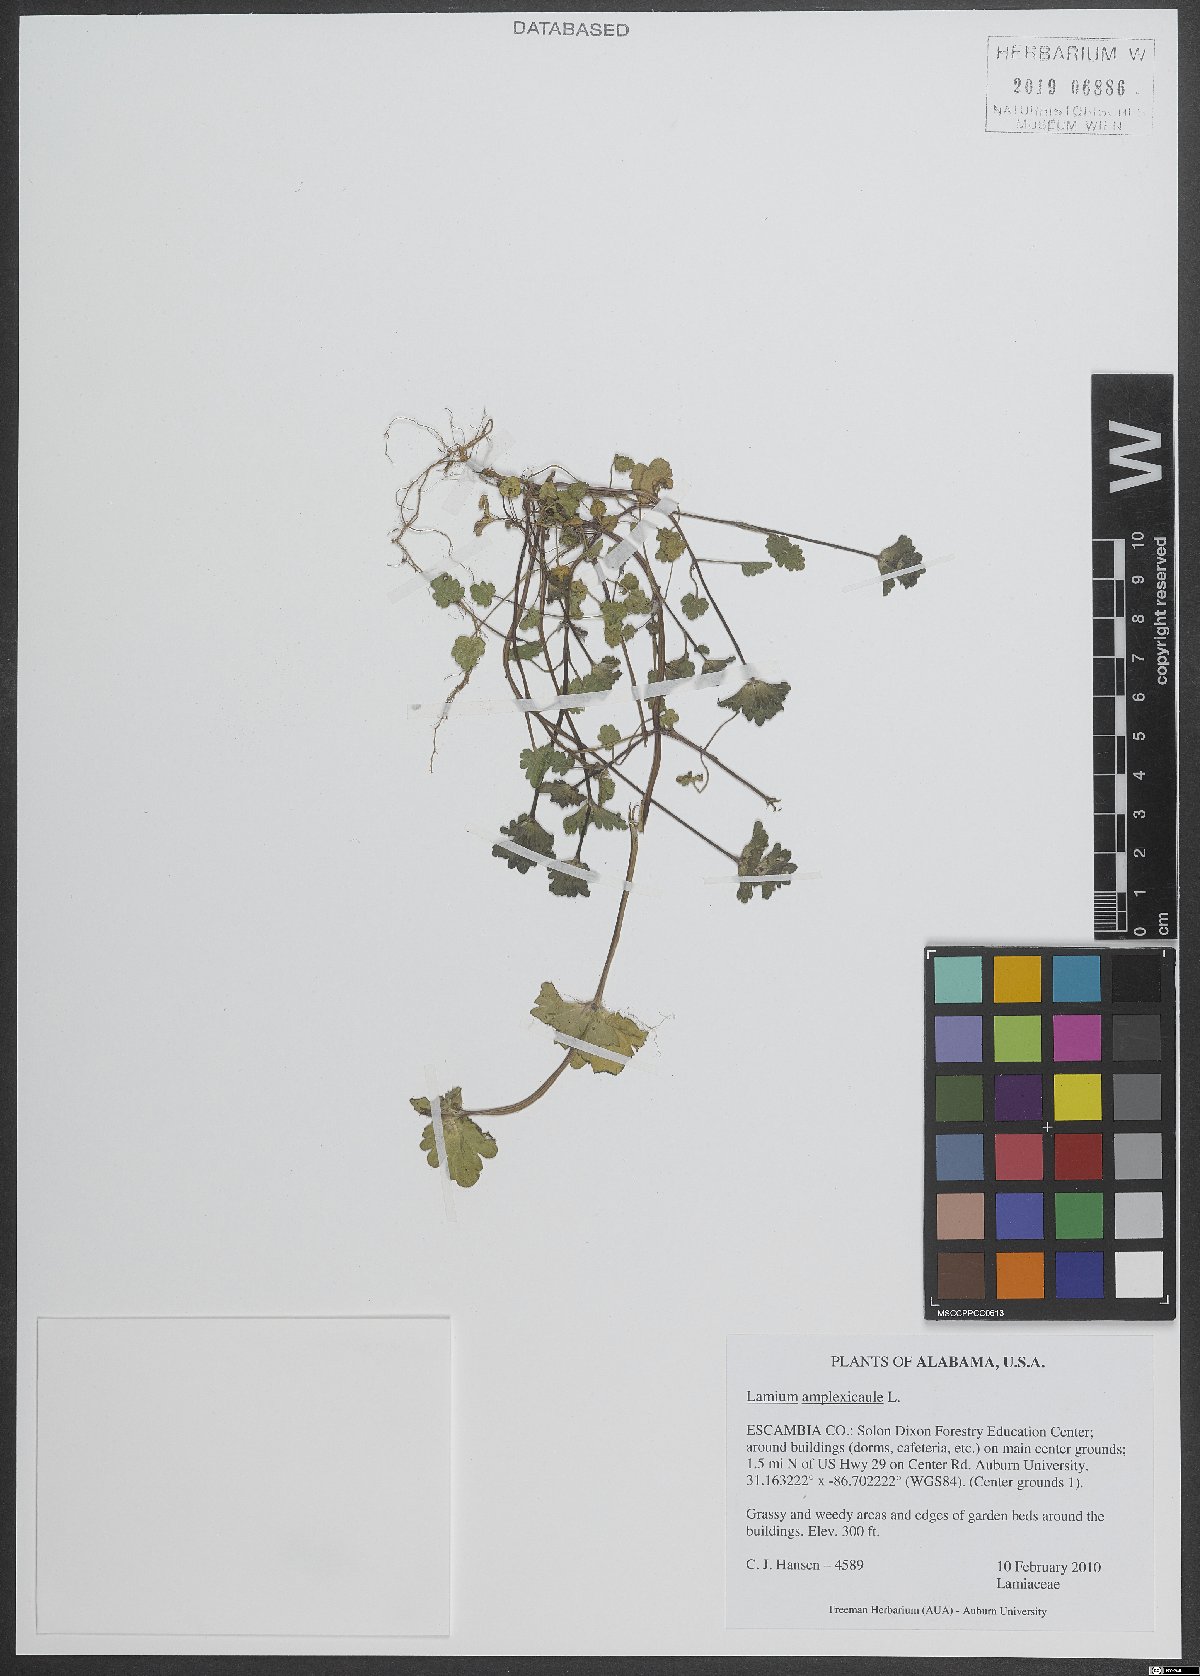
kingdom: Plantae
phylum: Tracheophyta
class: Magnoliopsida
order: Lamiales
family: Lamiaceae
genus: Lamium
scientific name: Lamium amplexicaule
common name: Henbit dead-nettle
